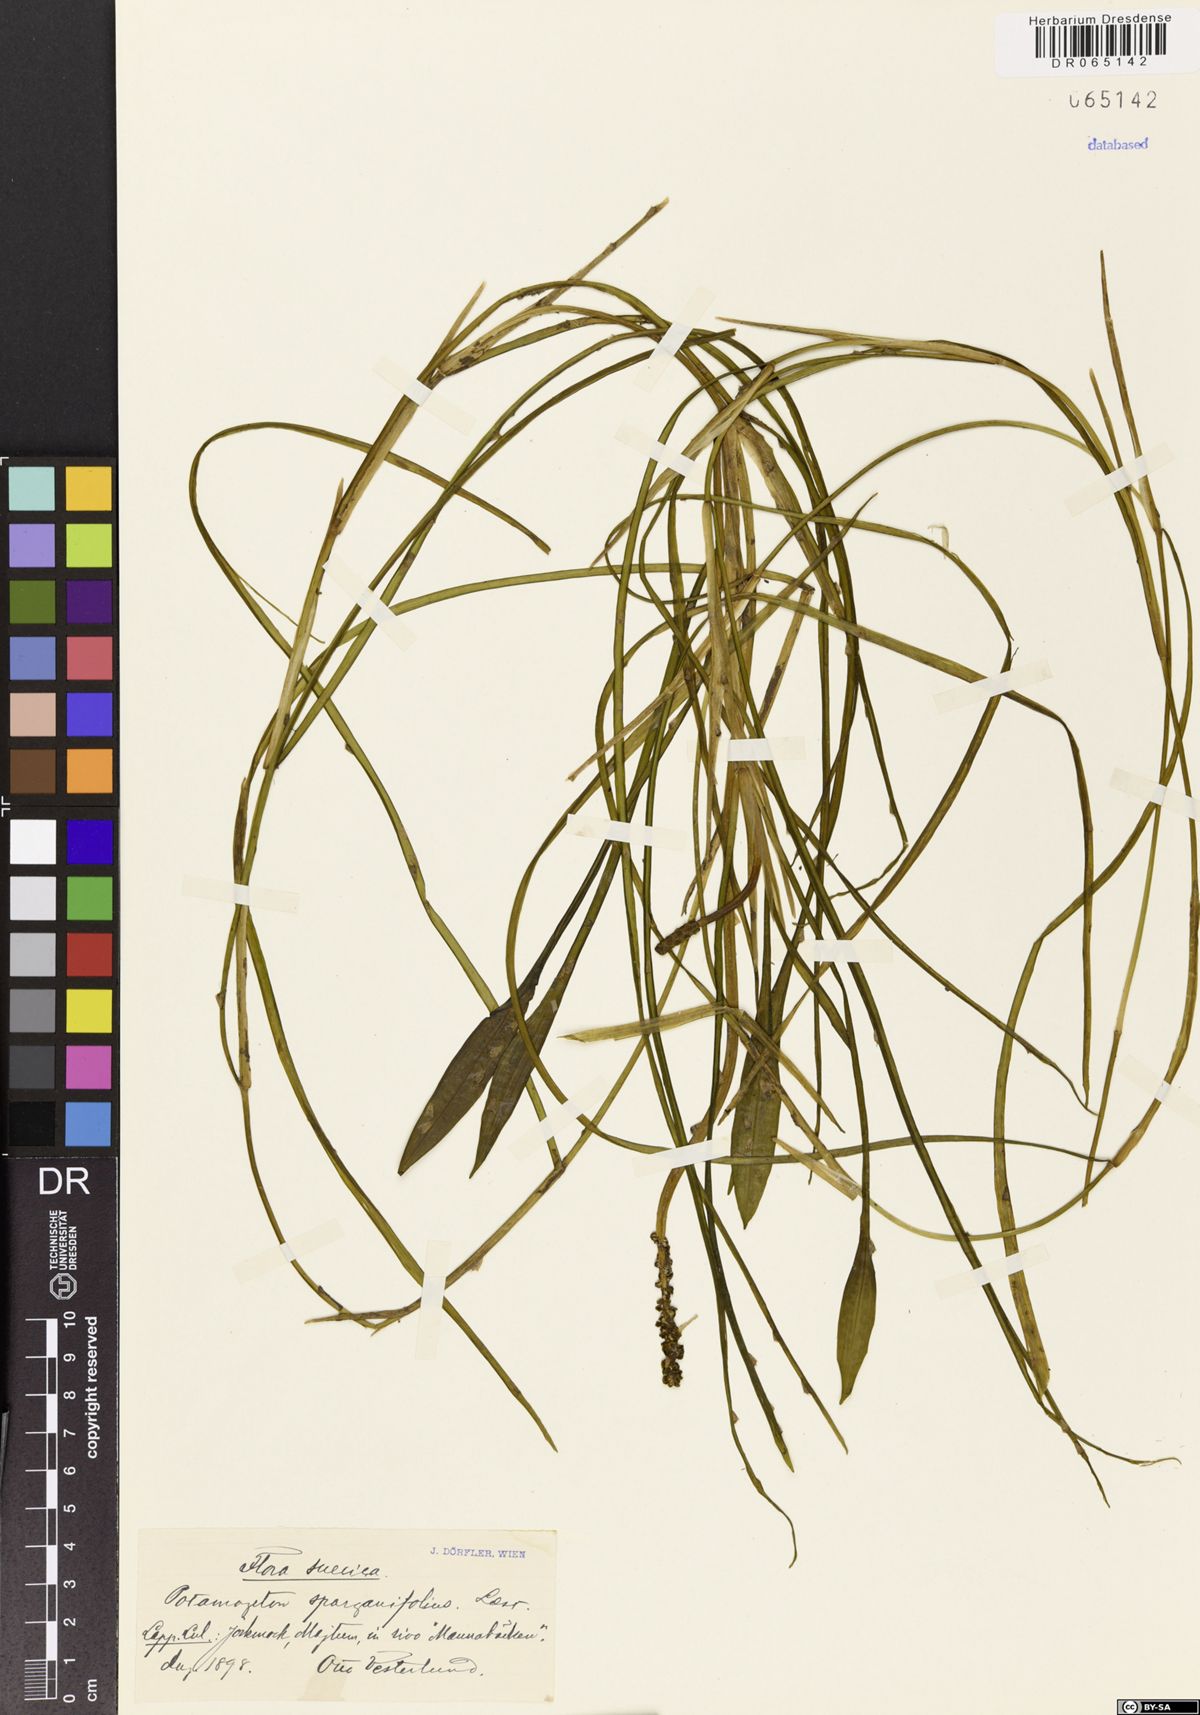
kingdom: Plantae
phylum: Tracheophyta
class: Liliopsida
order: Alismatales
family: Potamogetonaceae
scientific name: Potamogetonaceae
